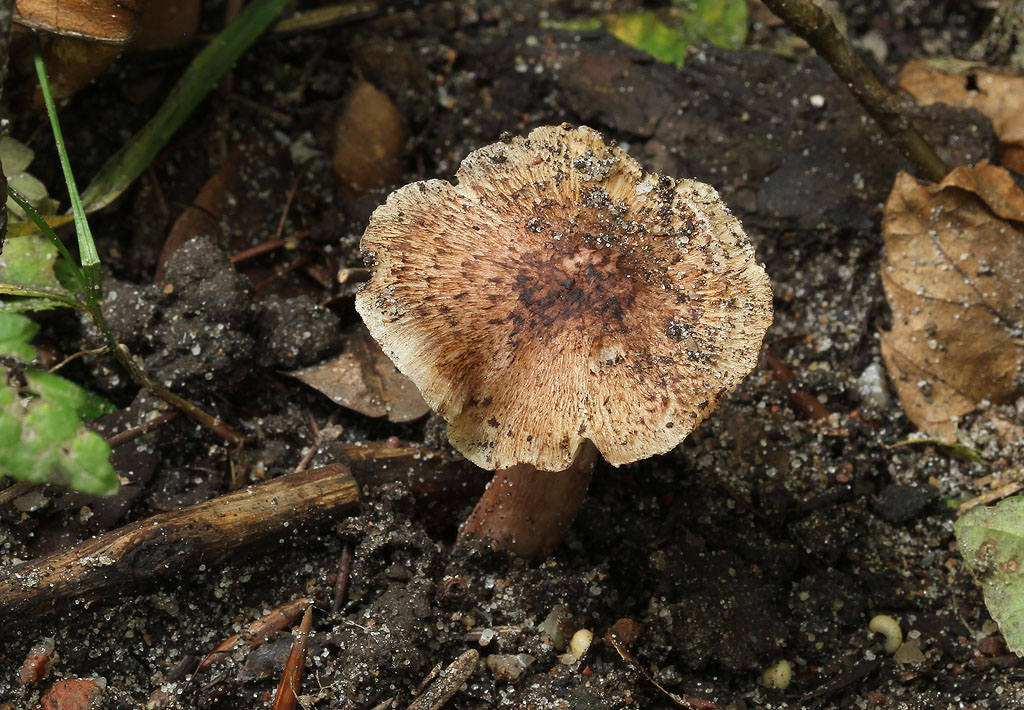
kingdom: Fungi
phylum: Basidiomycota
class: Agaricomycetes
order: Agaricales
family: Inocybaceae
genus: Inosperma
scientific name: Inosperma adaequatum
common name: vinrød trævlhat
